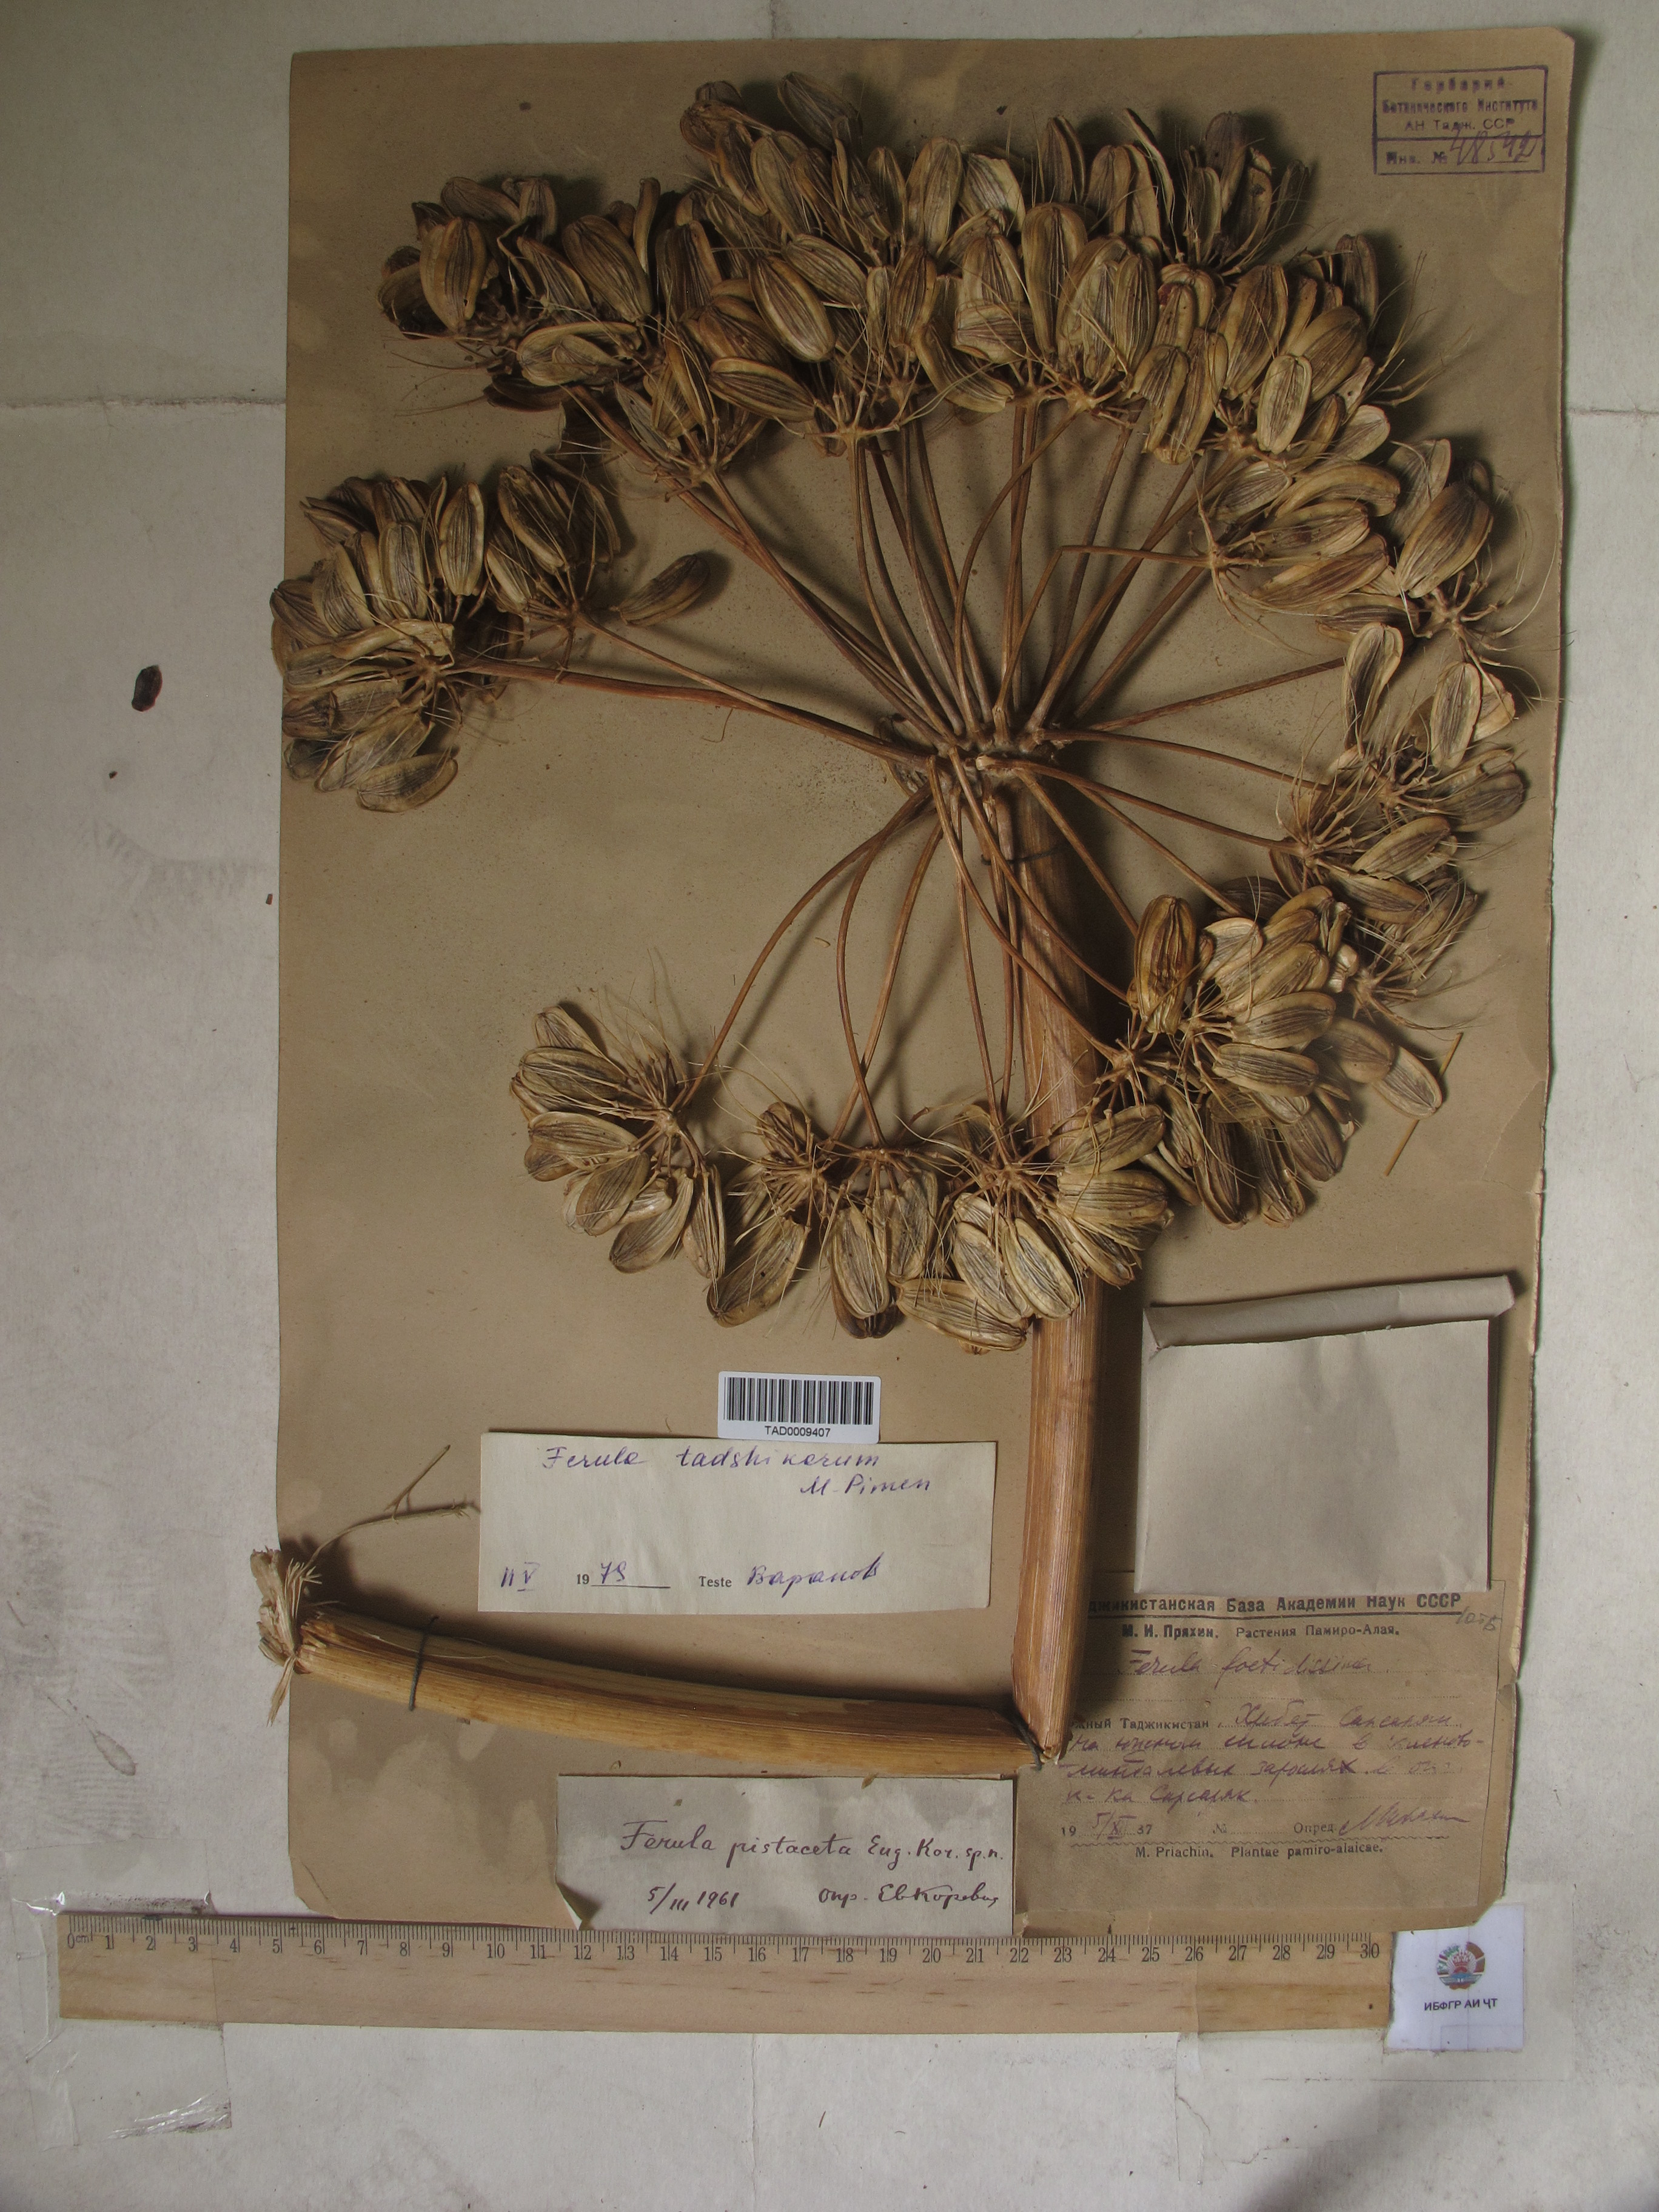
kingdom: Plantae
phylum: Tracheophyta
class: Magnoliopsida
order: Apiales
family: Apiaceae
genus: Ferula
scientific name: Ferula tadshikorum
